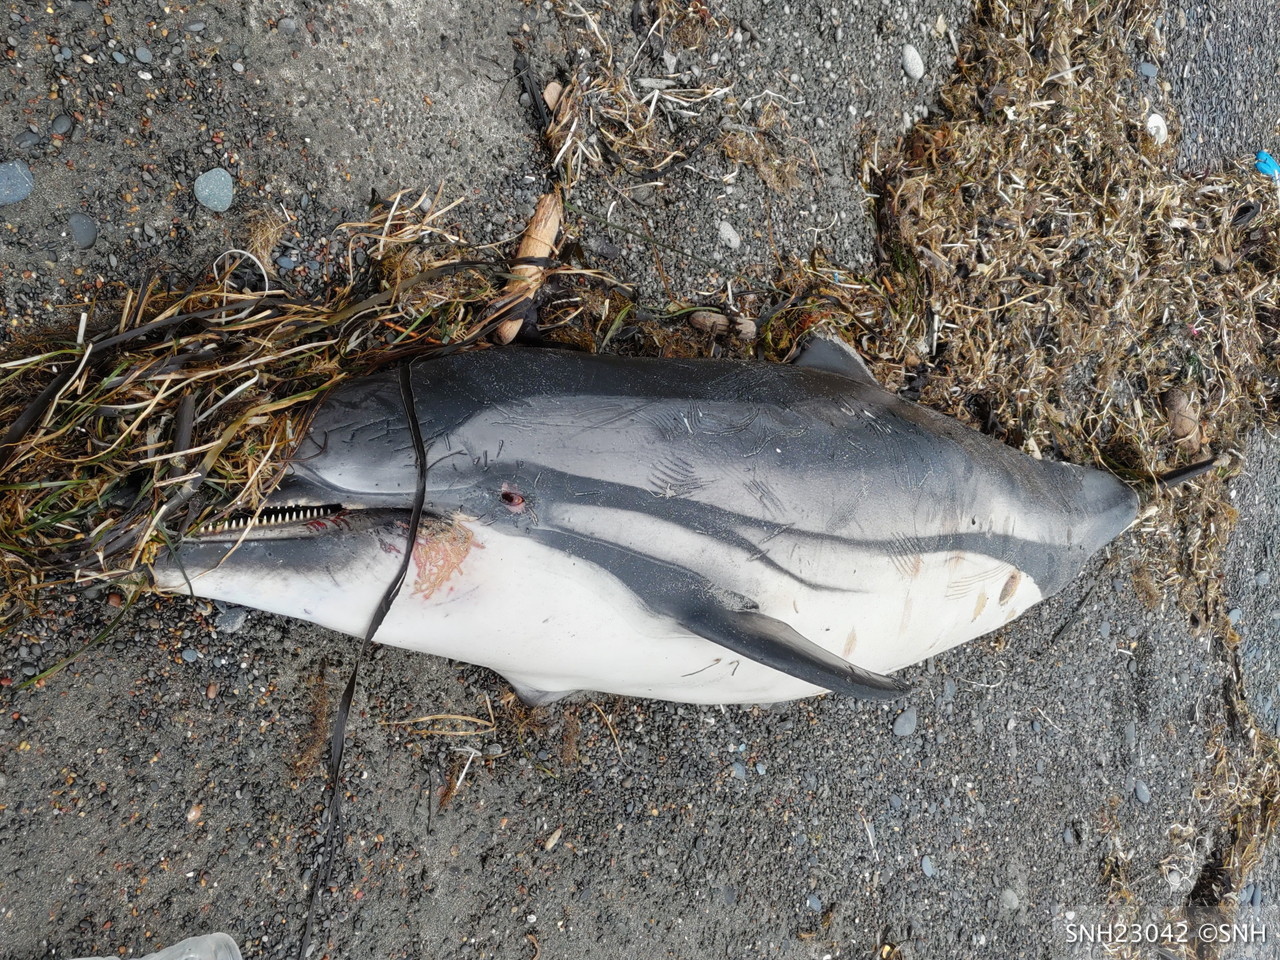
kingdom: Animalia
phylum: Chordata
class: Mammalia
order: Cetacea
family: Delphinidae
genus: Stenella
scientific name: Stenella coeruleoalba
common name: Striped dolphin
